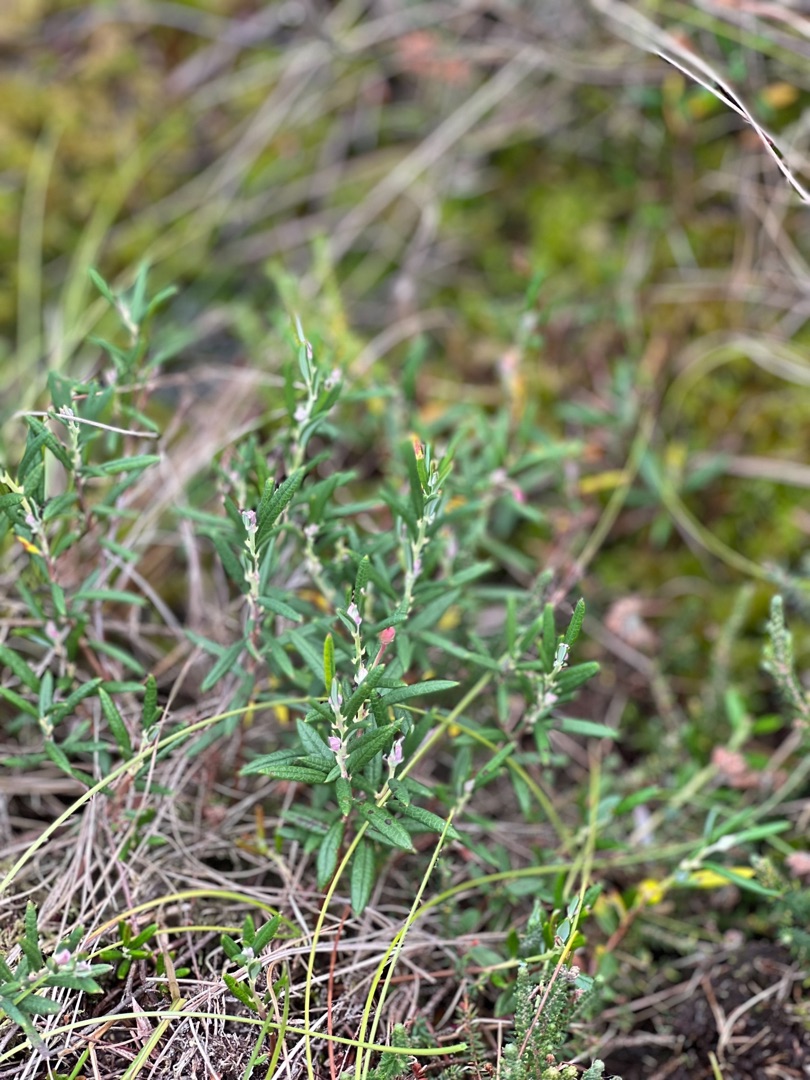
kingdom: Plantae
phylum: Tracheophyta
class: Magnoliopsida
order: Ericales
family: Ericaceae
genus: Andromeda
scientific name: Andromeda polifolia
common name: Rosmarinlyng
